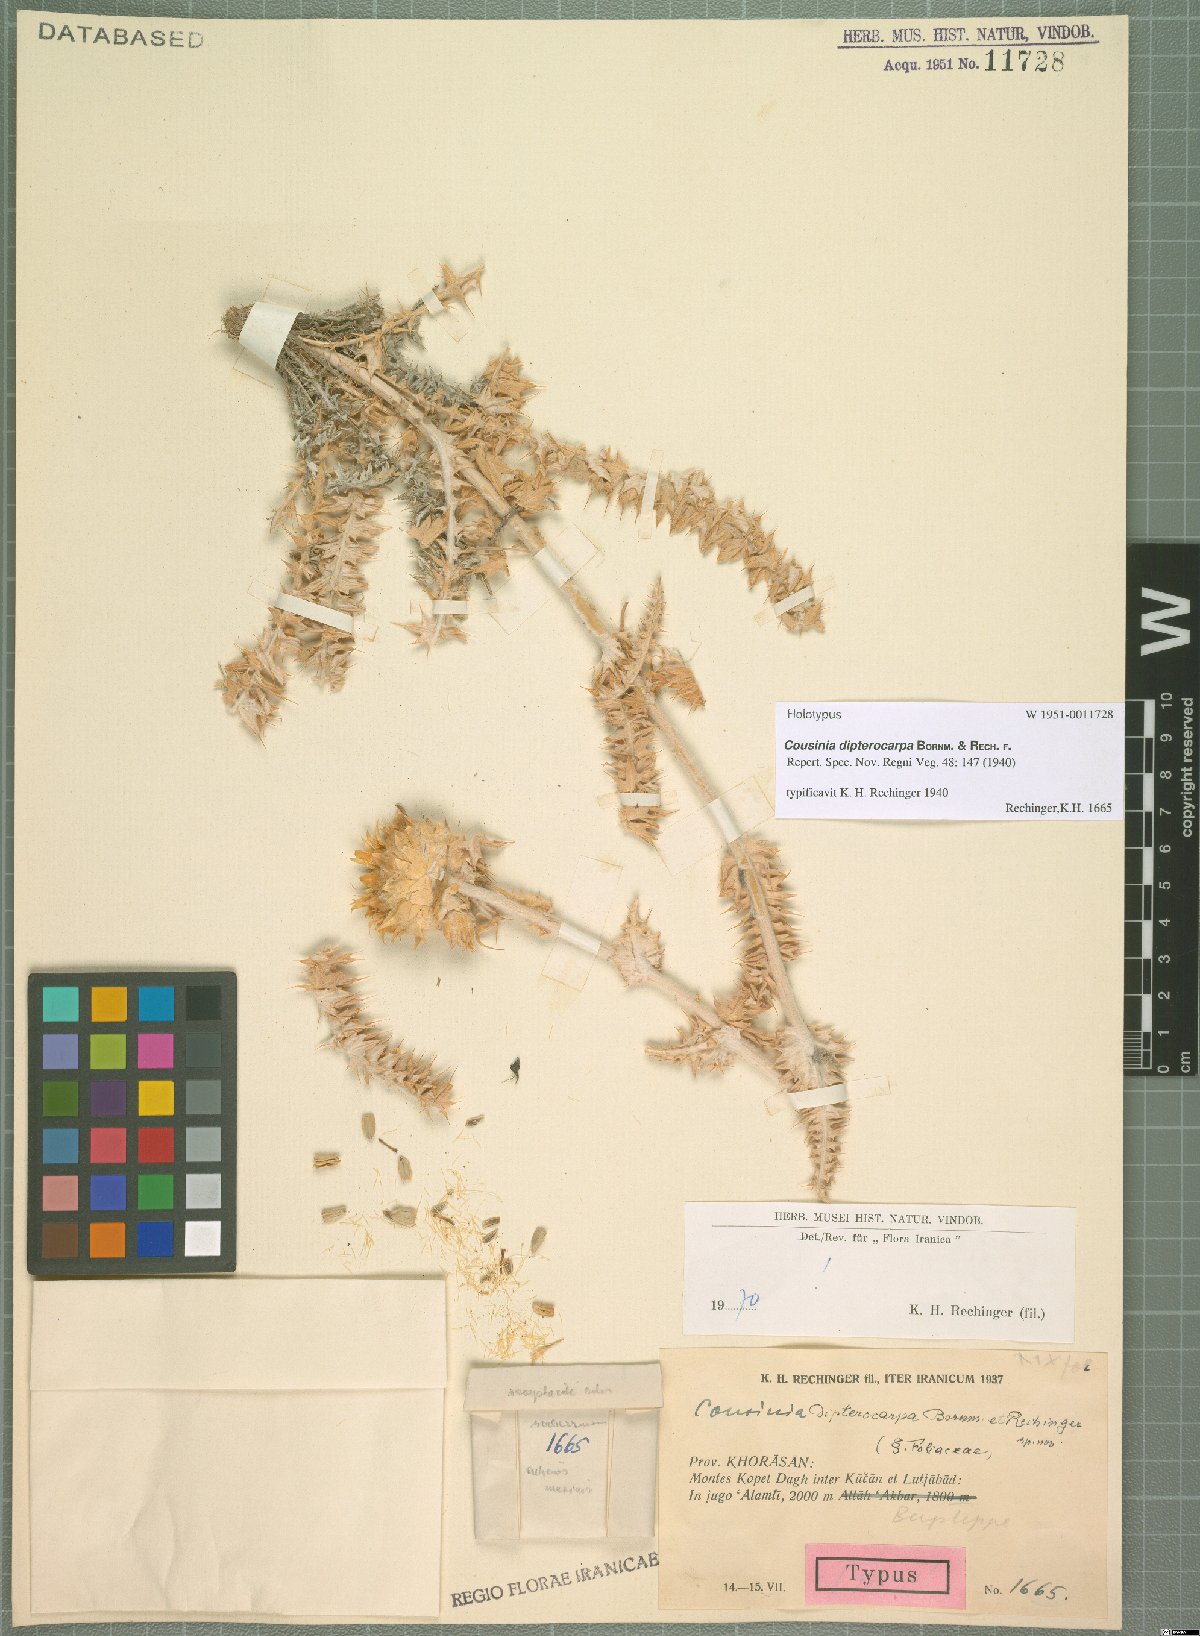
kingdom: Plantae
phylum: Tracheophyta
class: Magnoliopsida
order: Asterales
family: Asteraceae
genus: Cousinia
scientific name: Cousinia dipterocarpa
